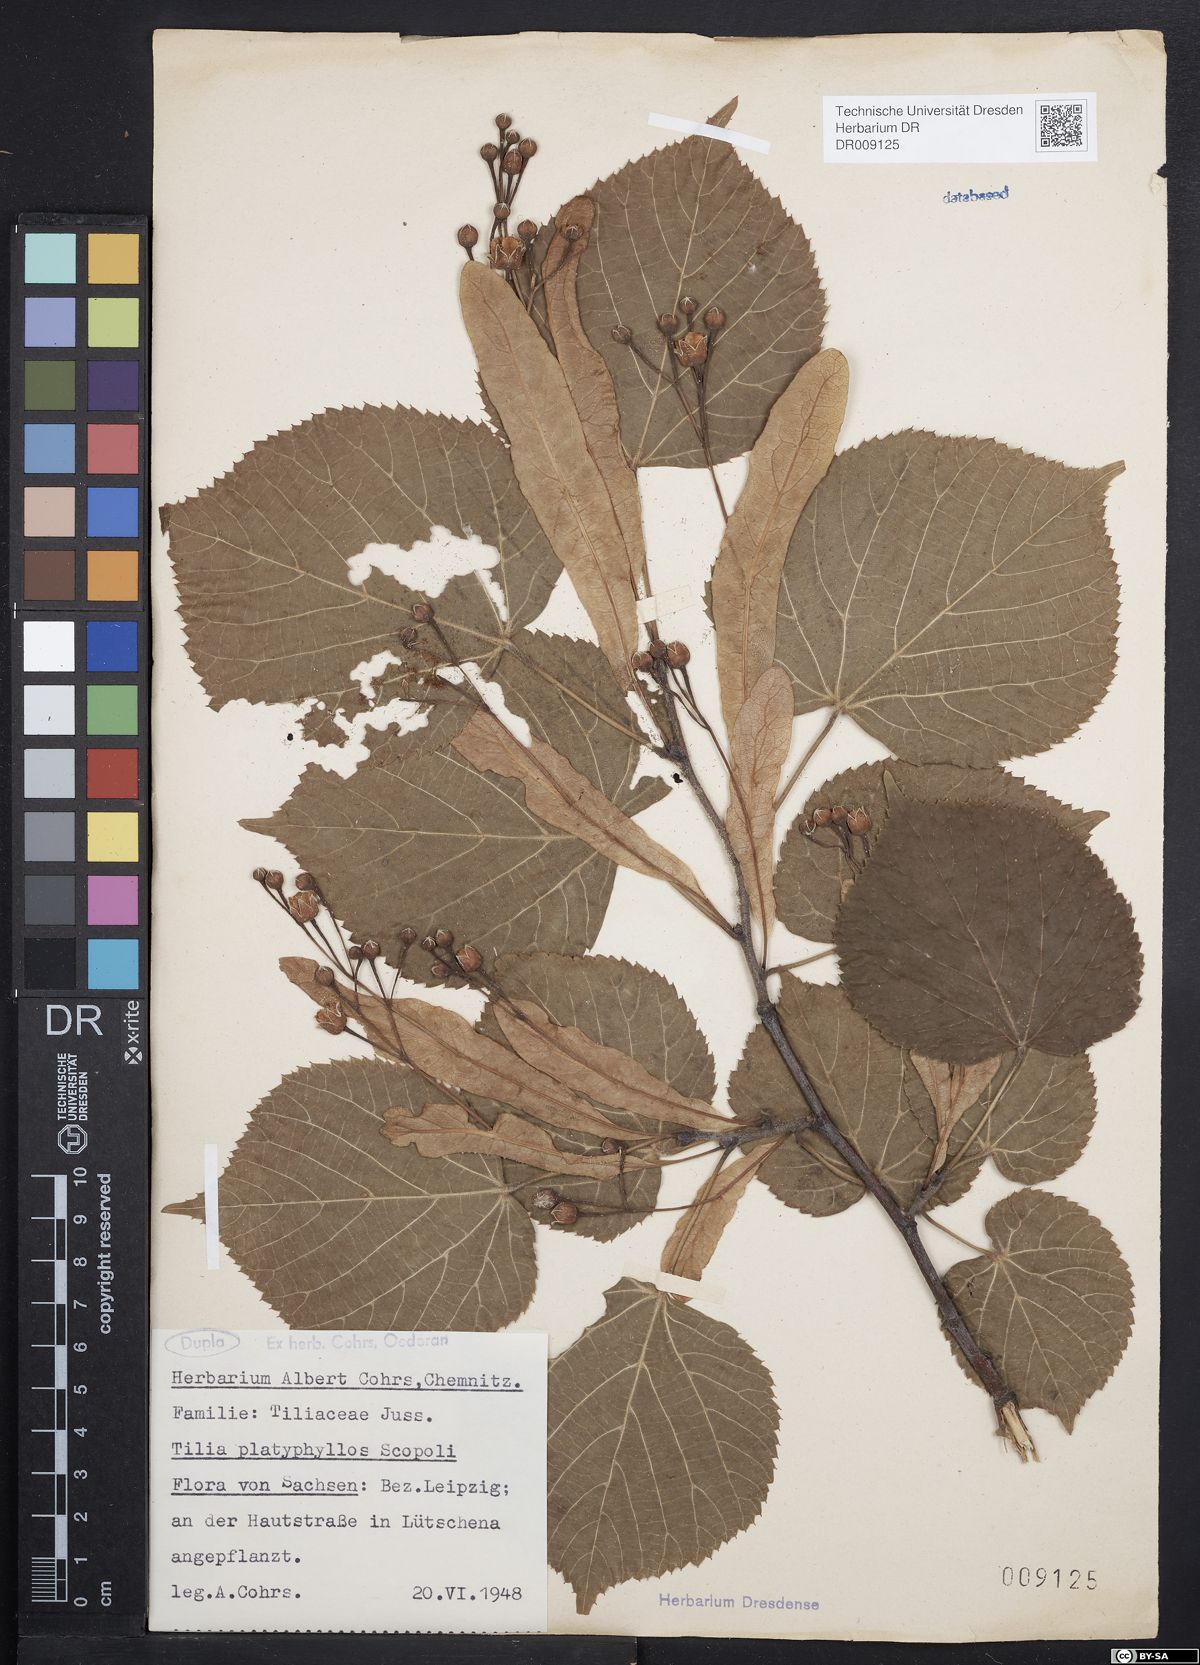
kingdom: Plantae
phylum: Tracheophyta
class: Magnoliopsida
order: Malvales
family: Malvaceae
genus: Tilia
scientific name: Tilia platyphyllos
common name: Large-leaved lime
